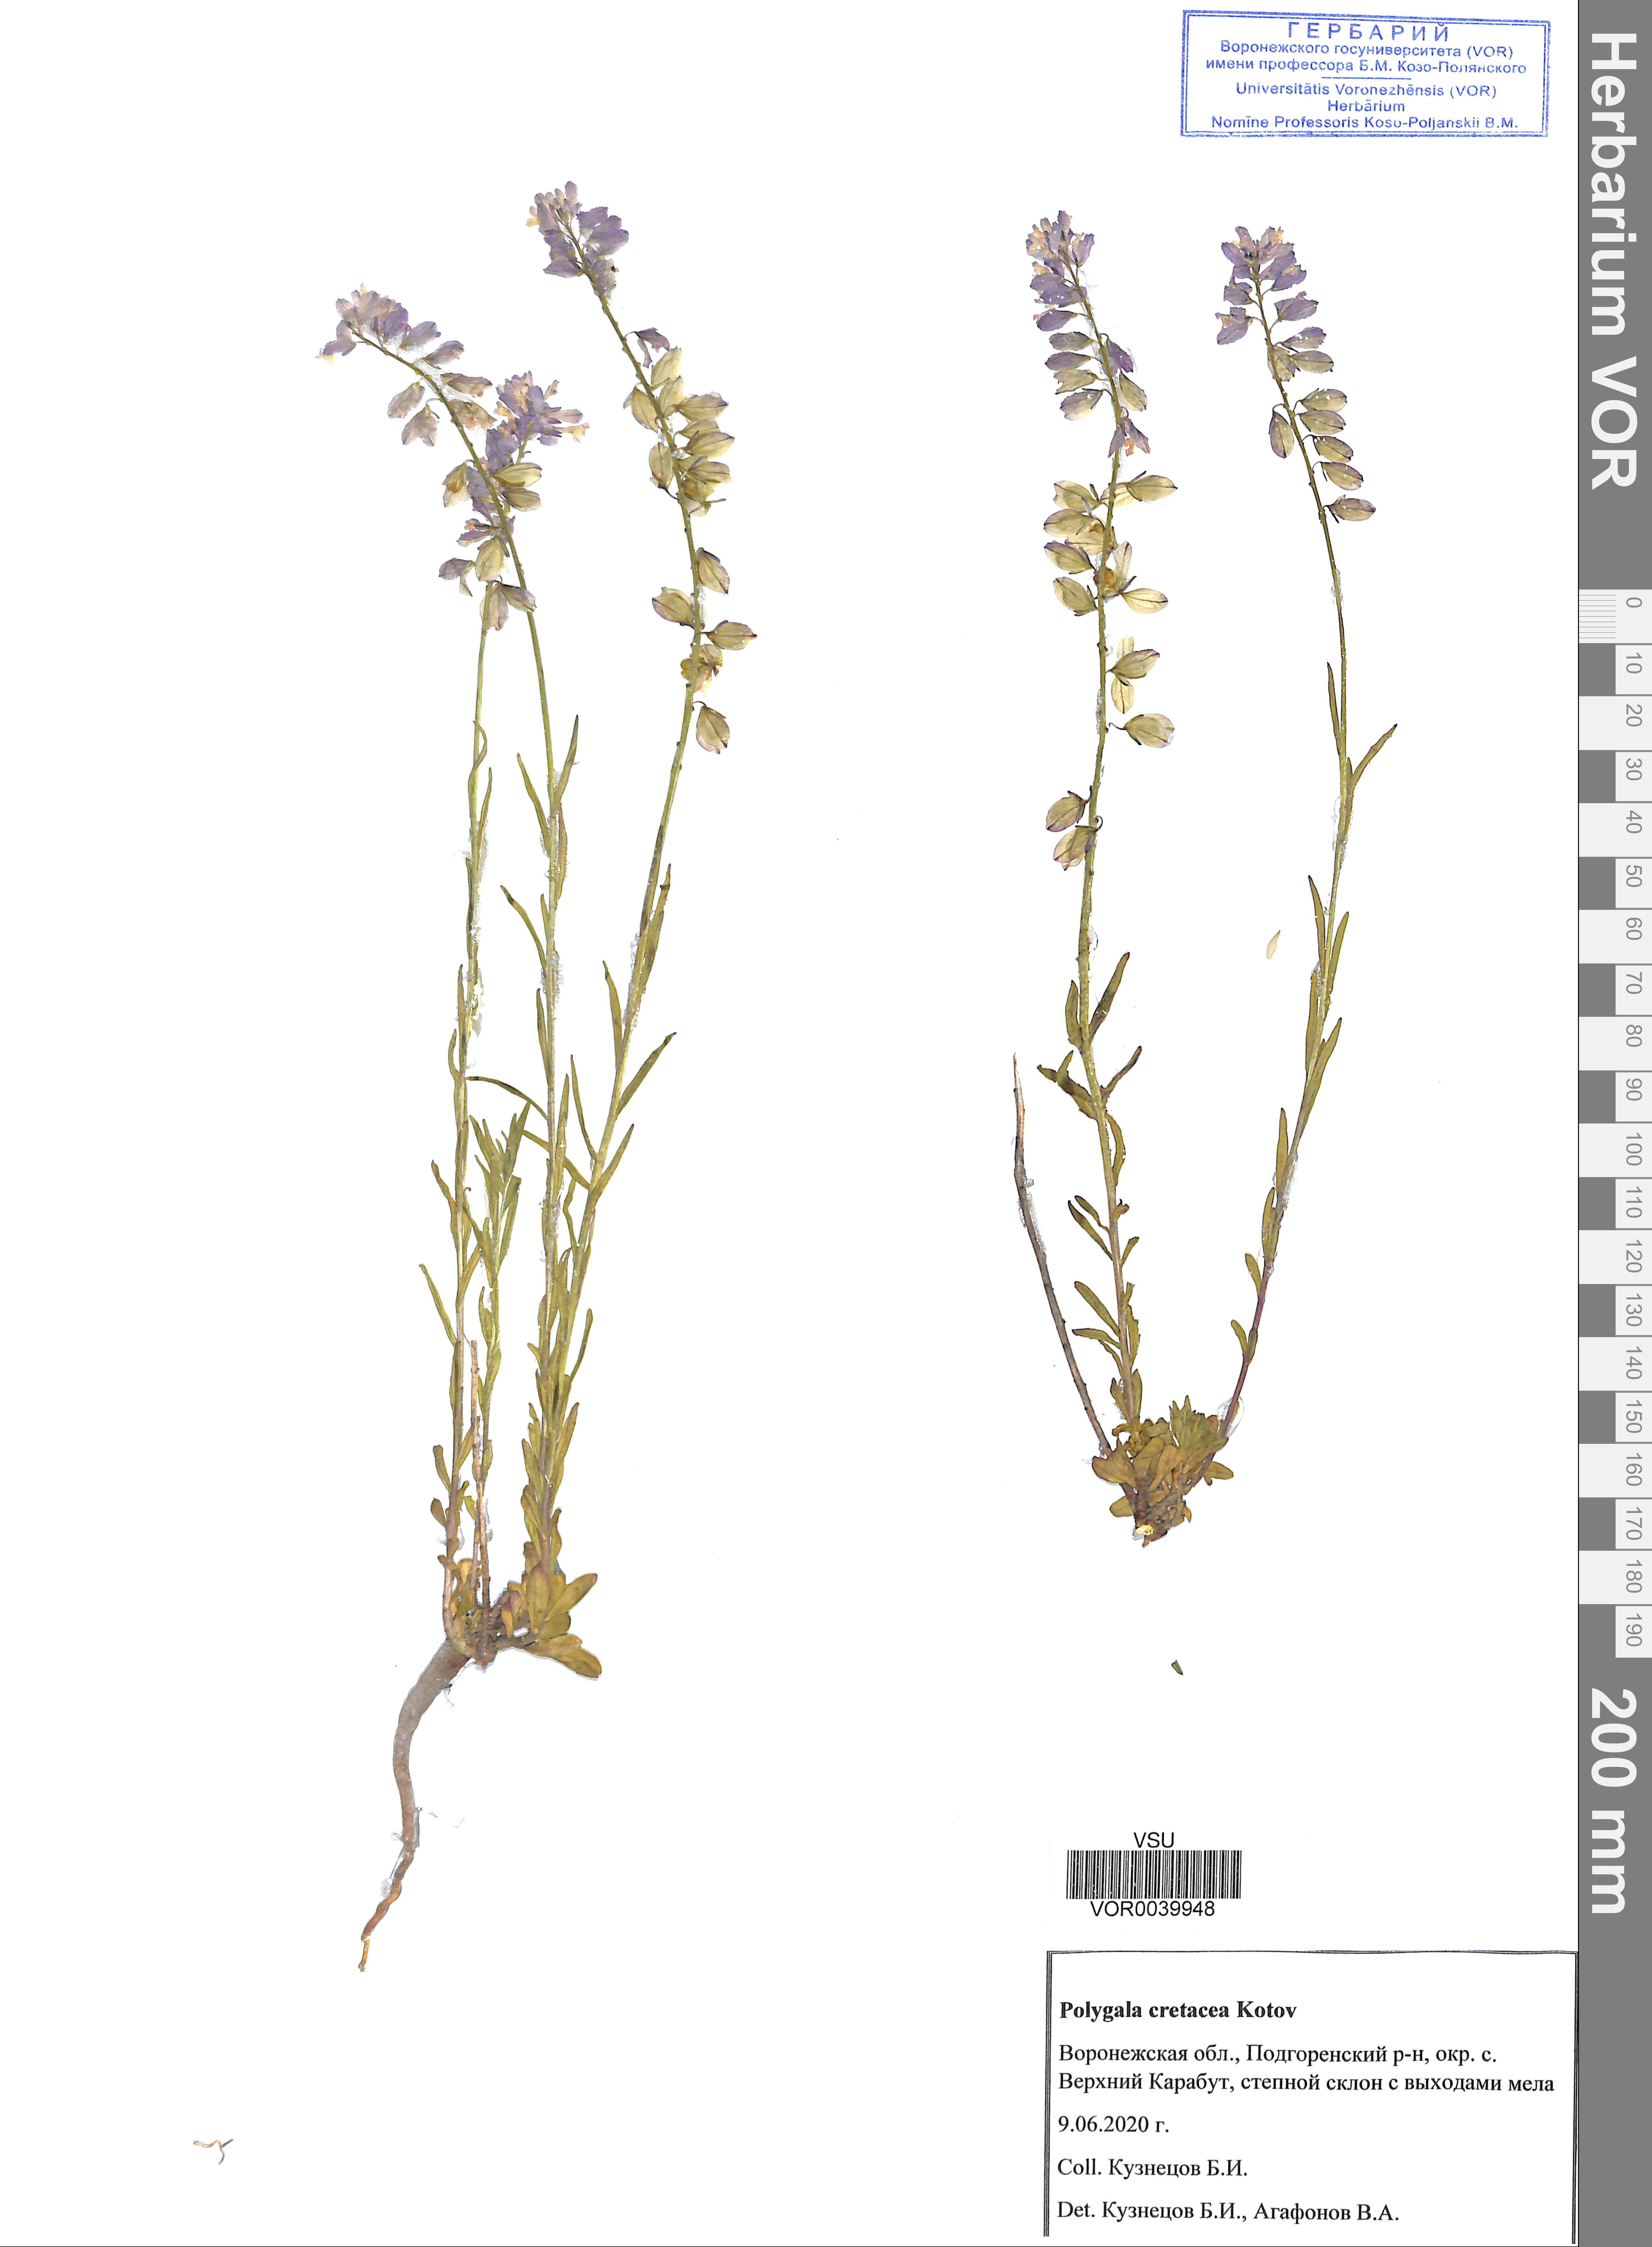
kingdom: Plantae
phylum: Tracheophyta
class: Magnoliopsida
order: Fabales
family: Polygalaceae
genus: Polygala
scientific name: Polygala nicaeensis
